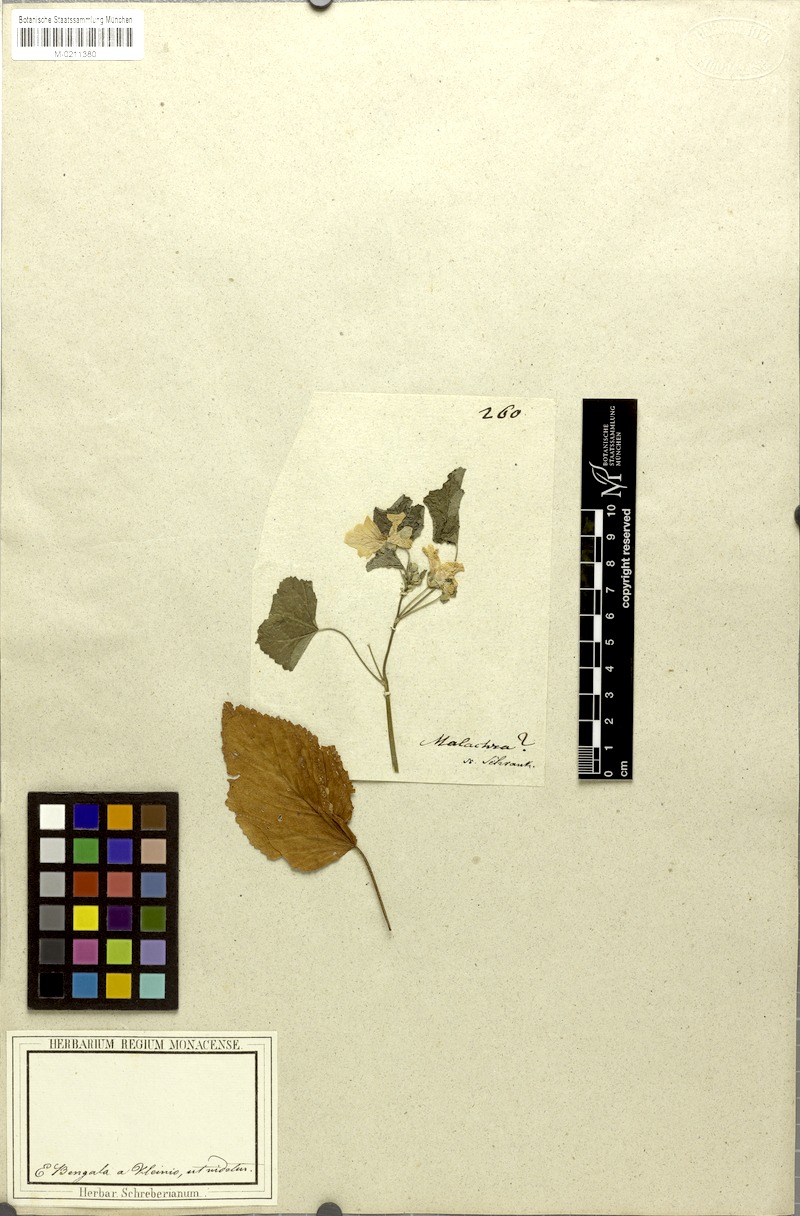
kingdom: Plantae
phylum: Tracheophyta
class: Magnoliopsida
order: Malvales
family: Malvaceae
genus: Malachra
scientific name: Malachra
